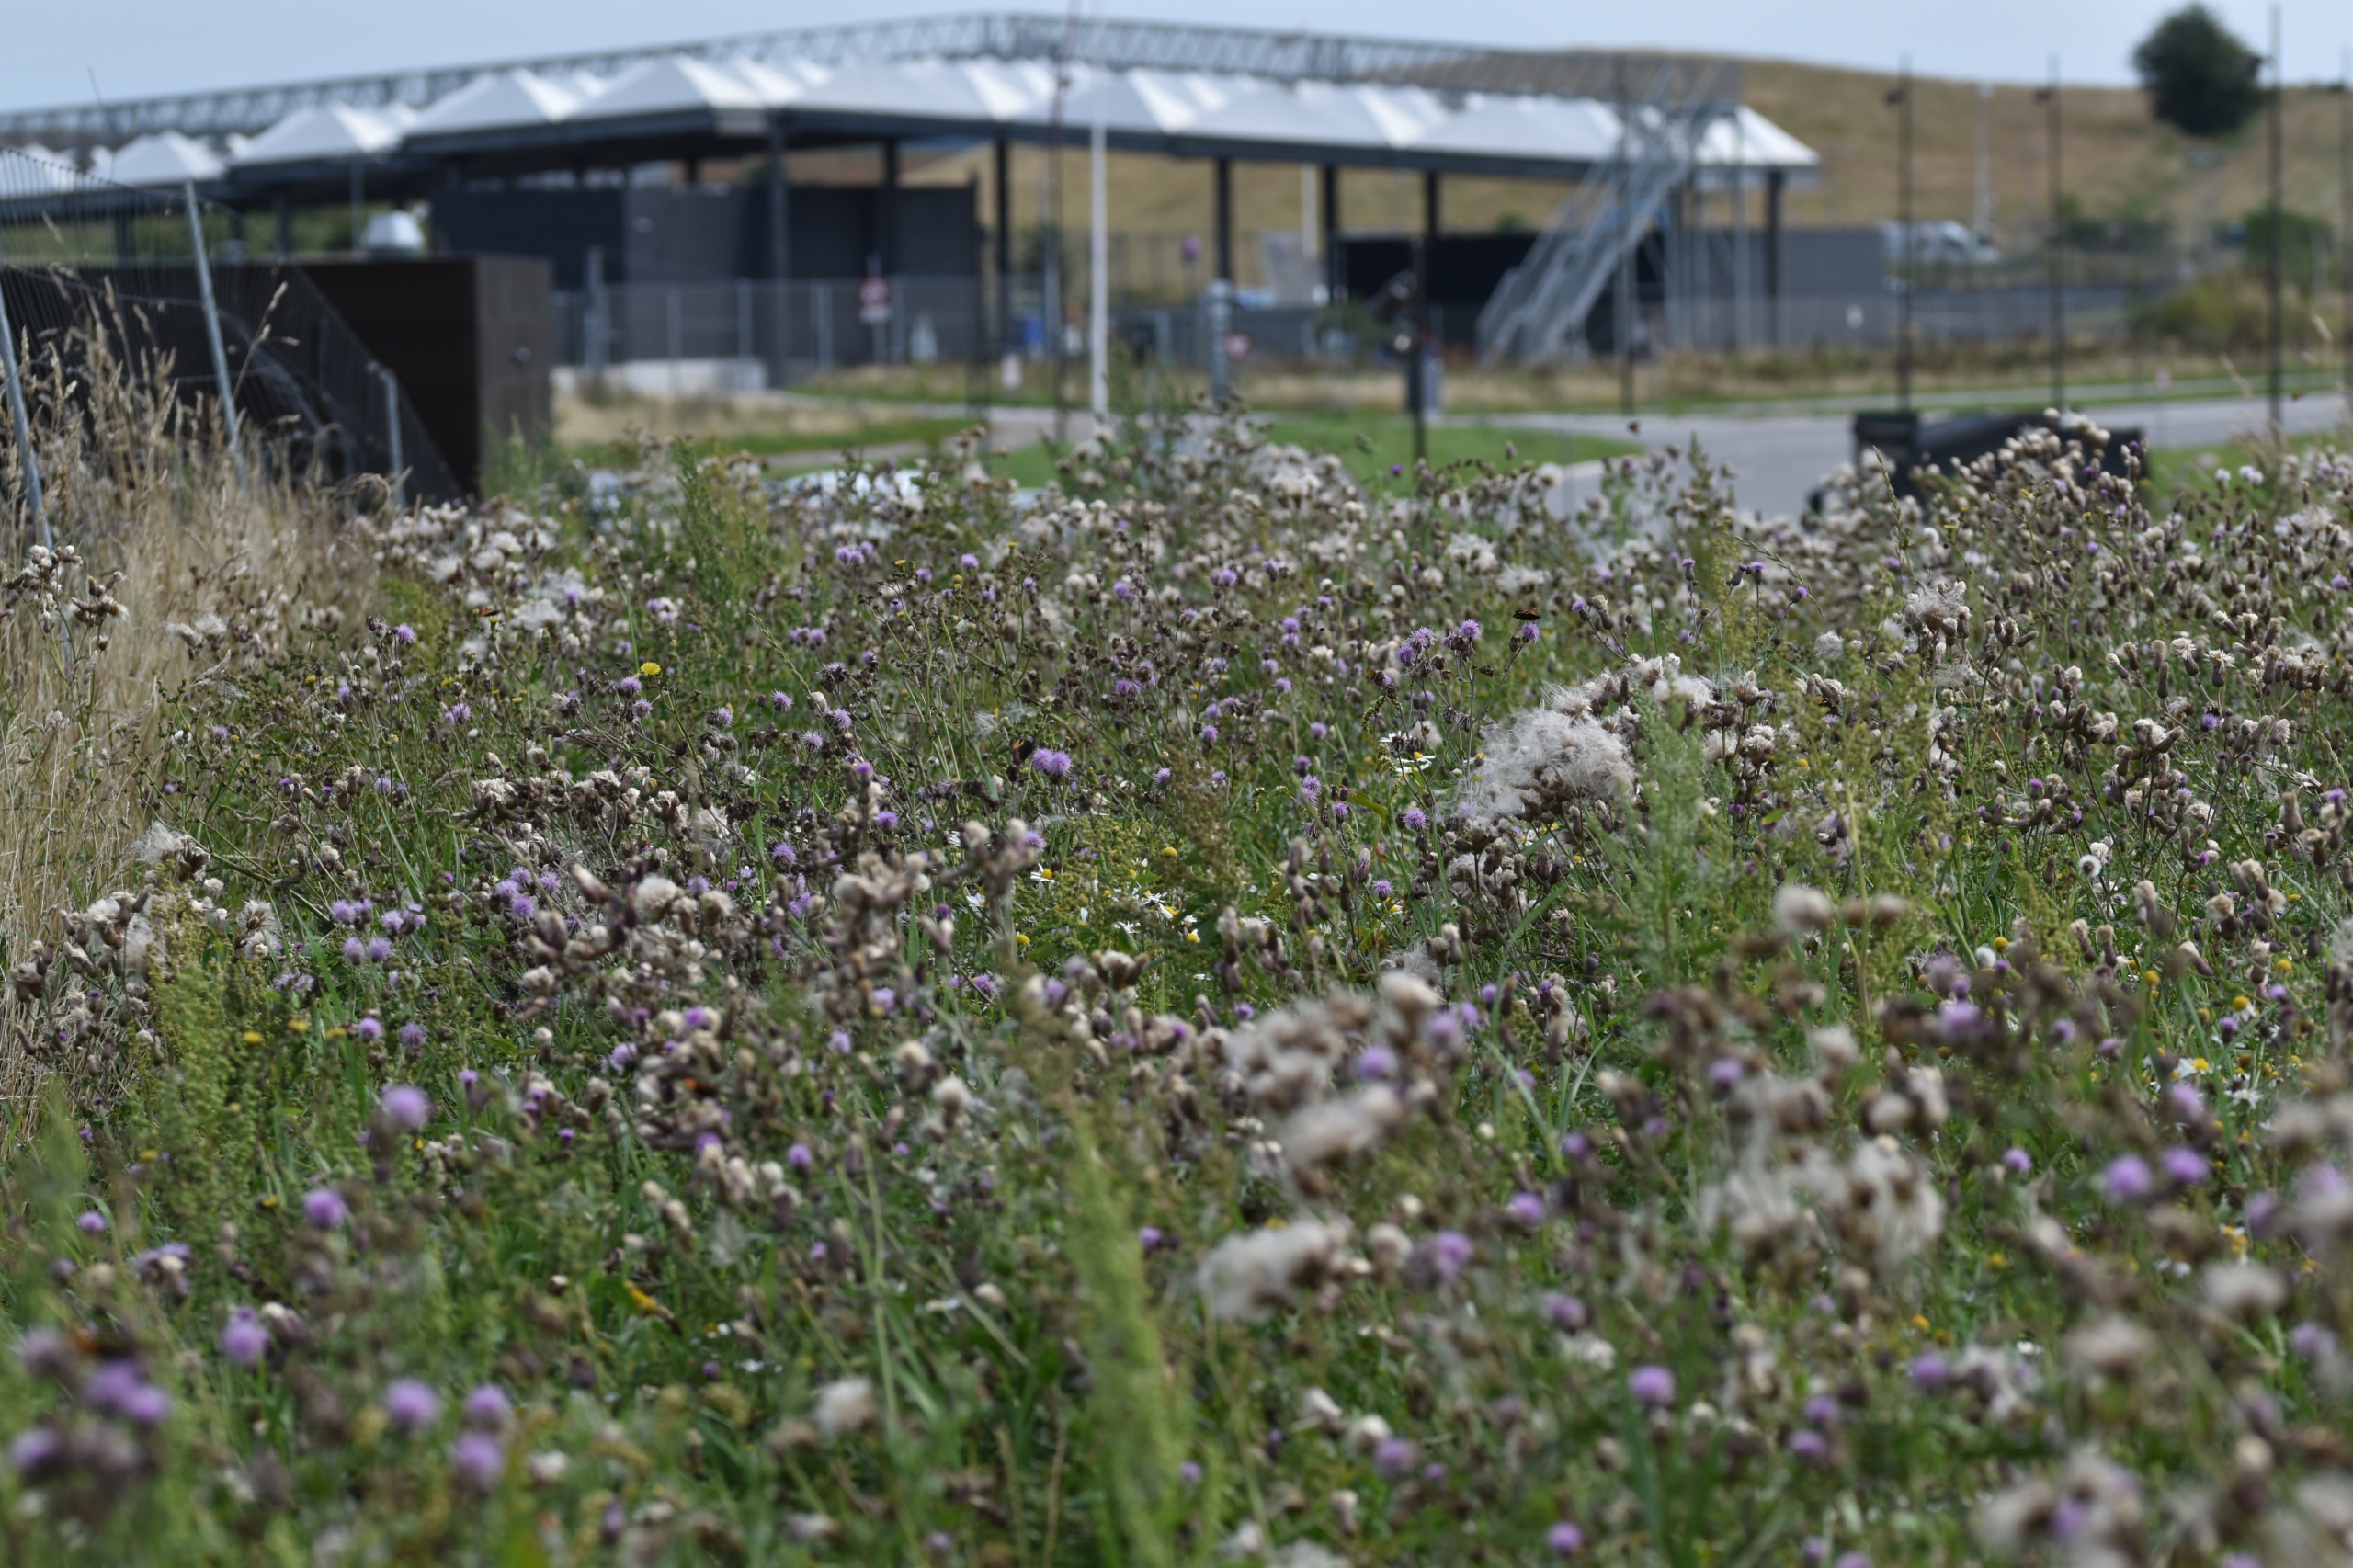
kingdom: Plantae
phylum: Tracheophyta
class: Magnoliopsida
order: Asterales
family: Asteraceae
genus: Cirsium
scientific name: Cirsium arvense
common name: Ager-tidsel
